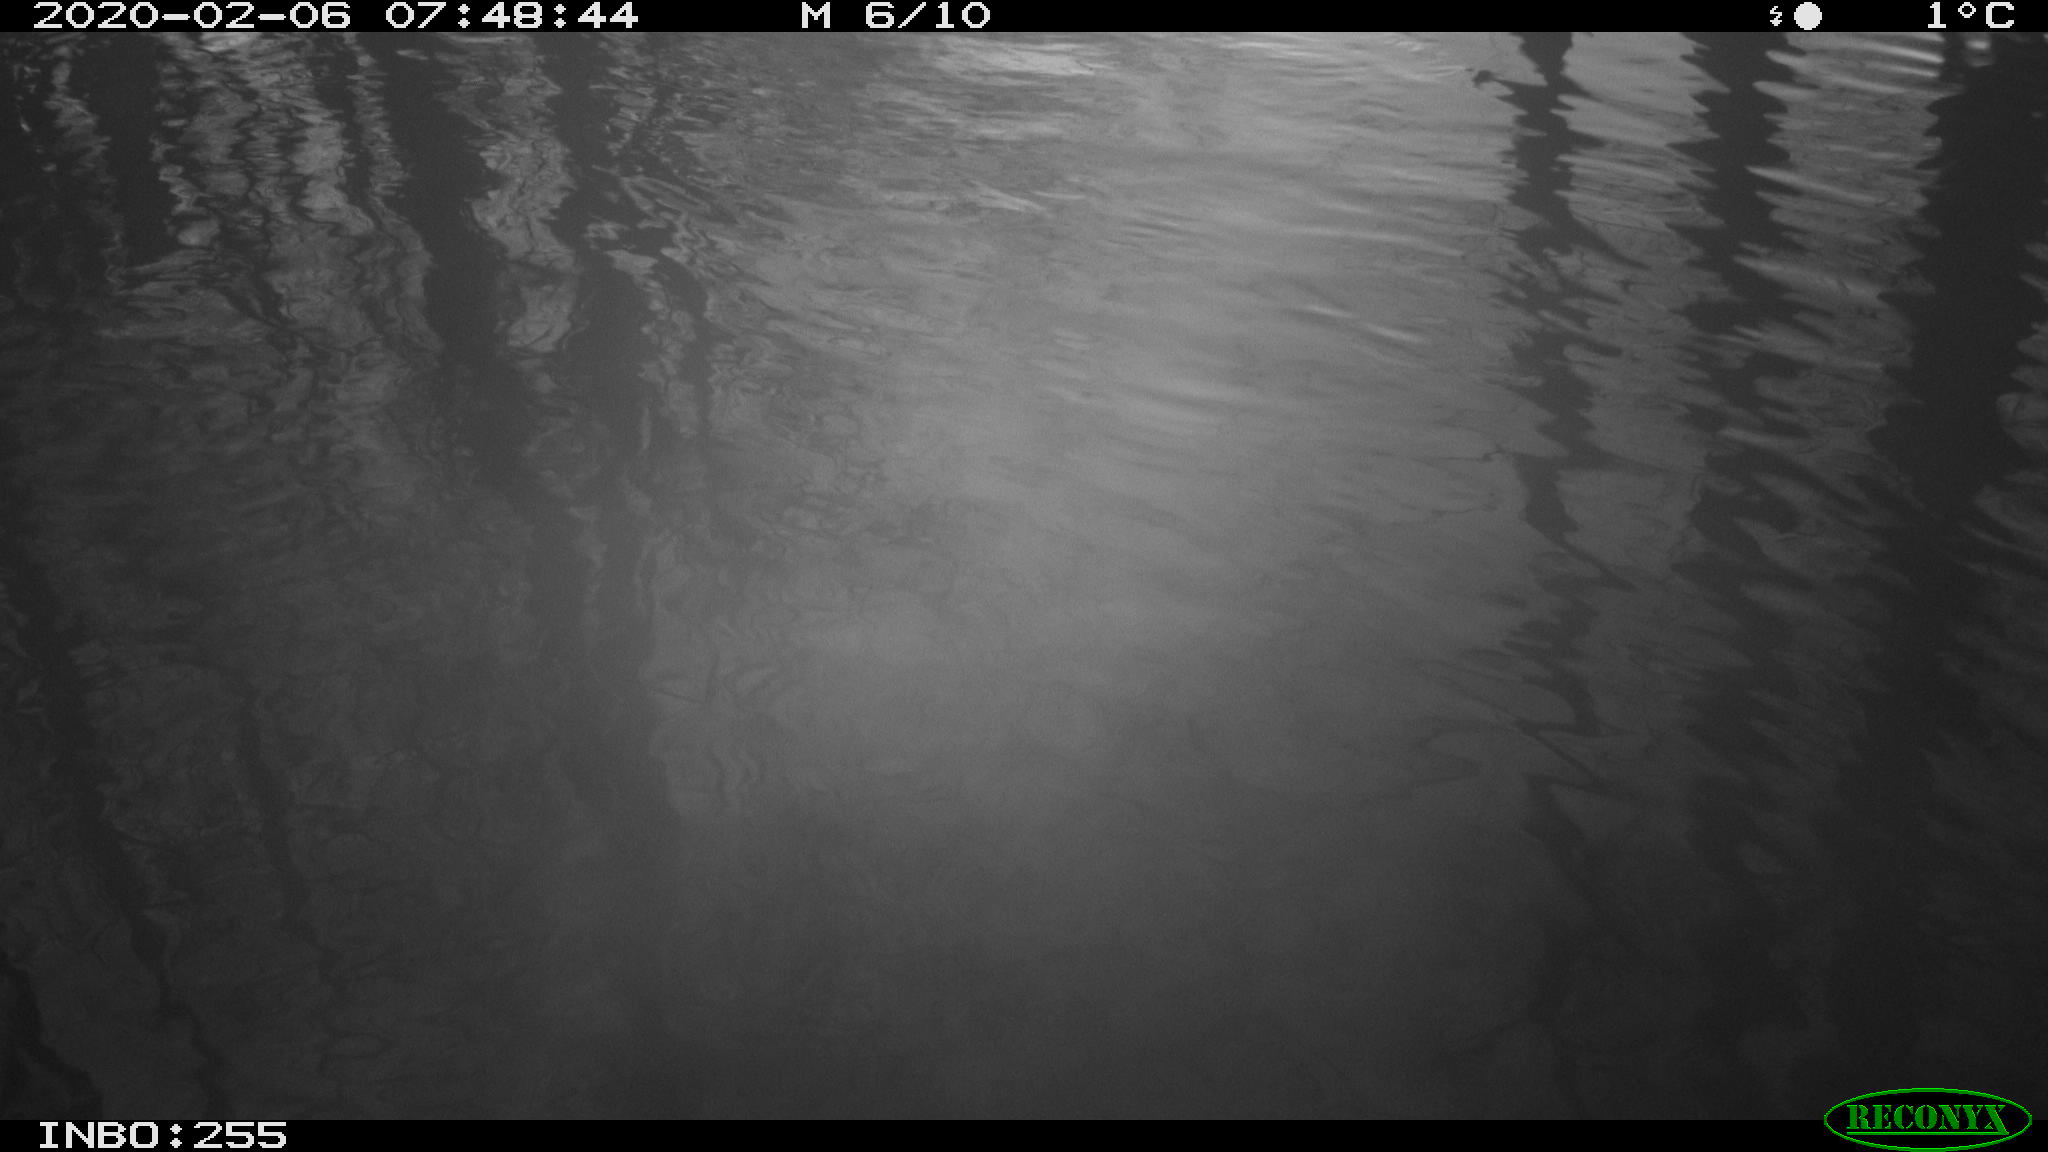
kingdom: Animalia
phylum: Chordata
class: Aves
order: Gruiformes
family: Rallidae
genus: Fulica
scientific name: Fulica atra
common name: Eurasian coot
